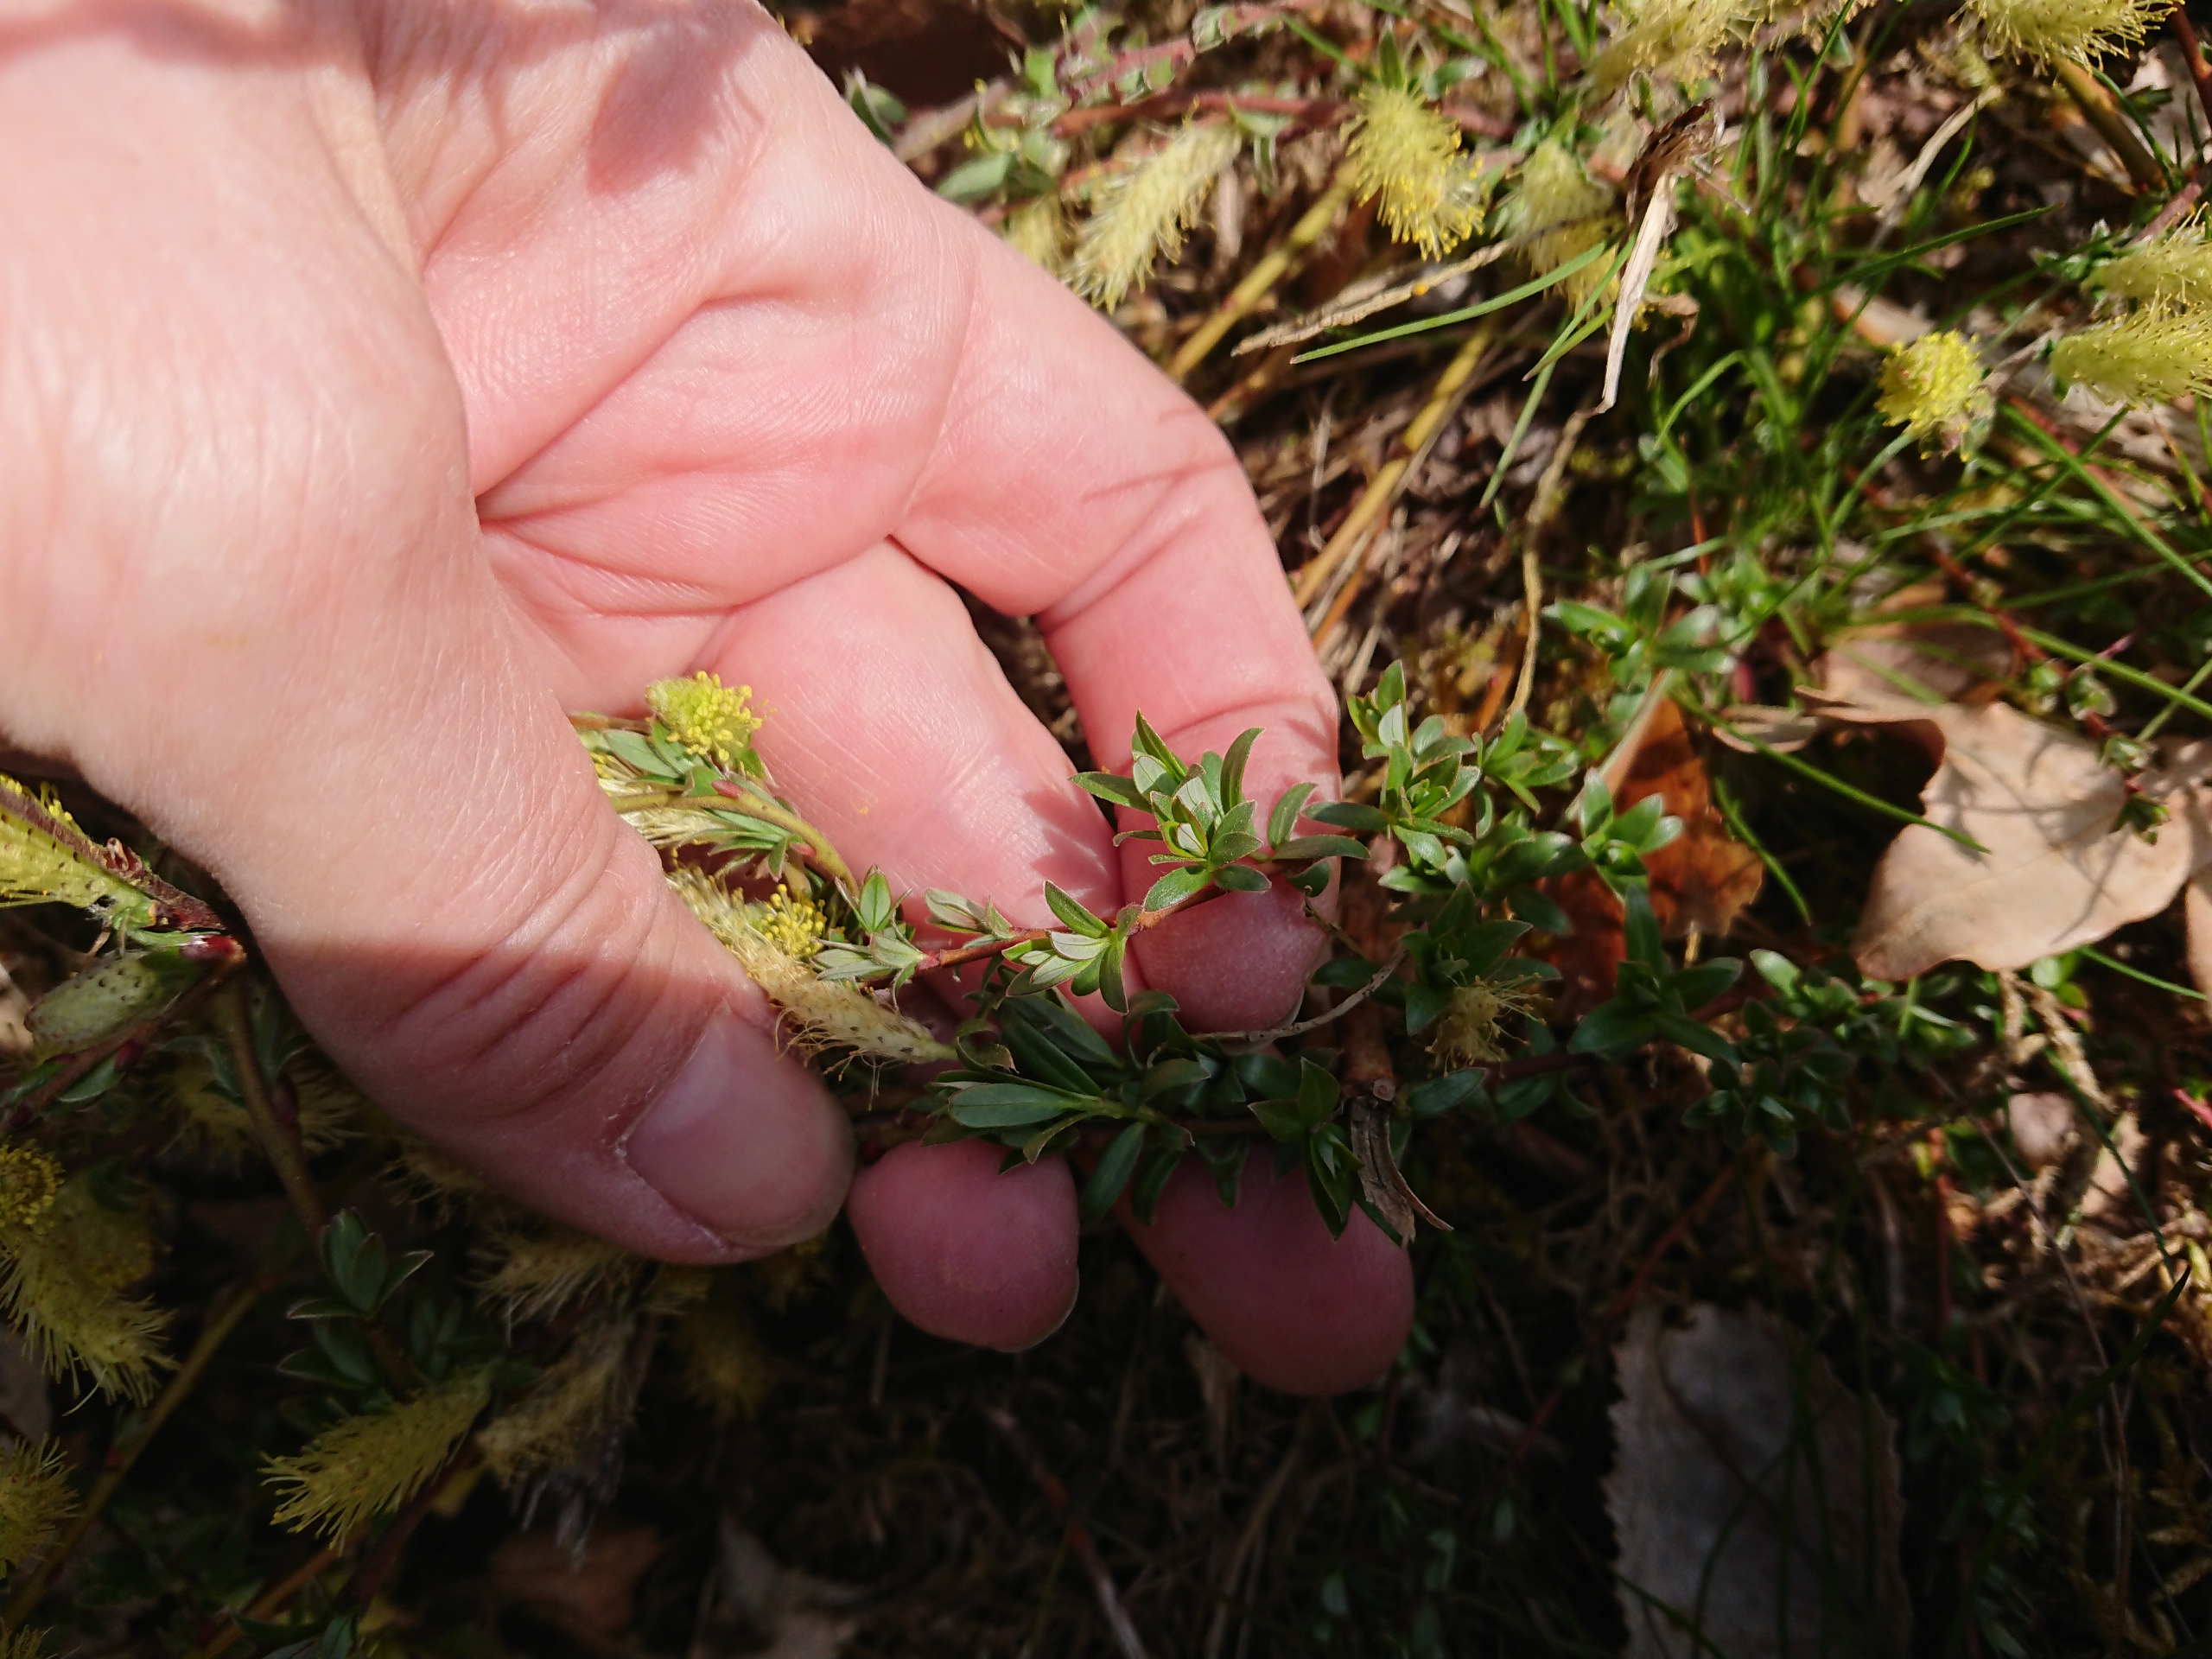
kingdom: Plantae
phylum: Tracheophyta
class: Magnoliopsida
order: Malpighiales
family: Salicaceae
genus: Salix
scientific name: Salix repens
